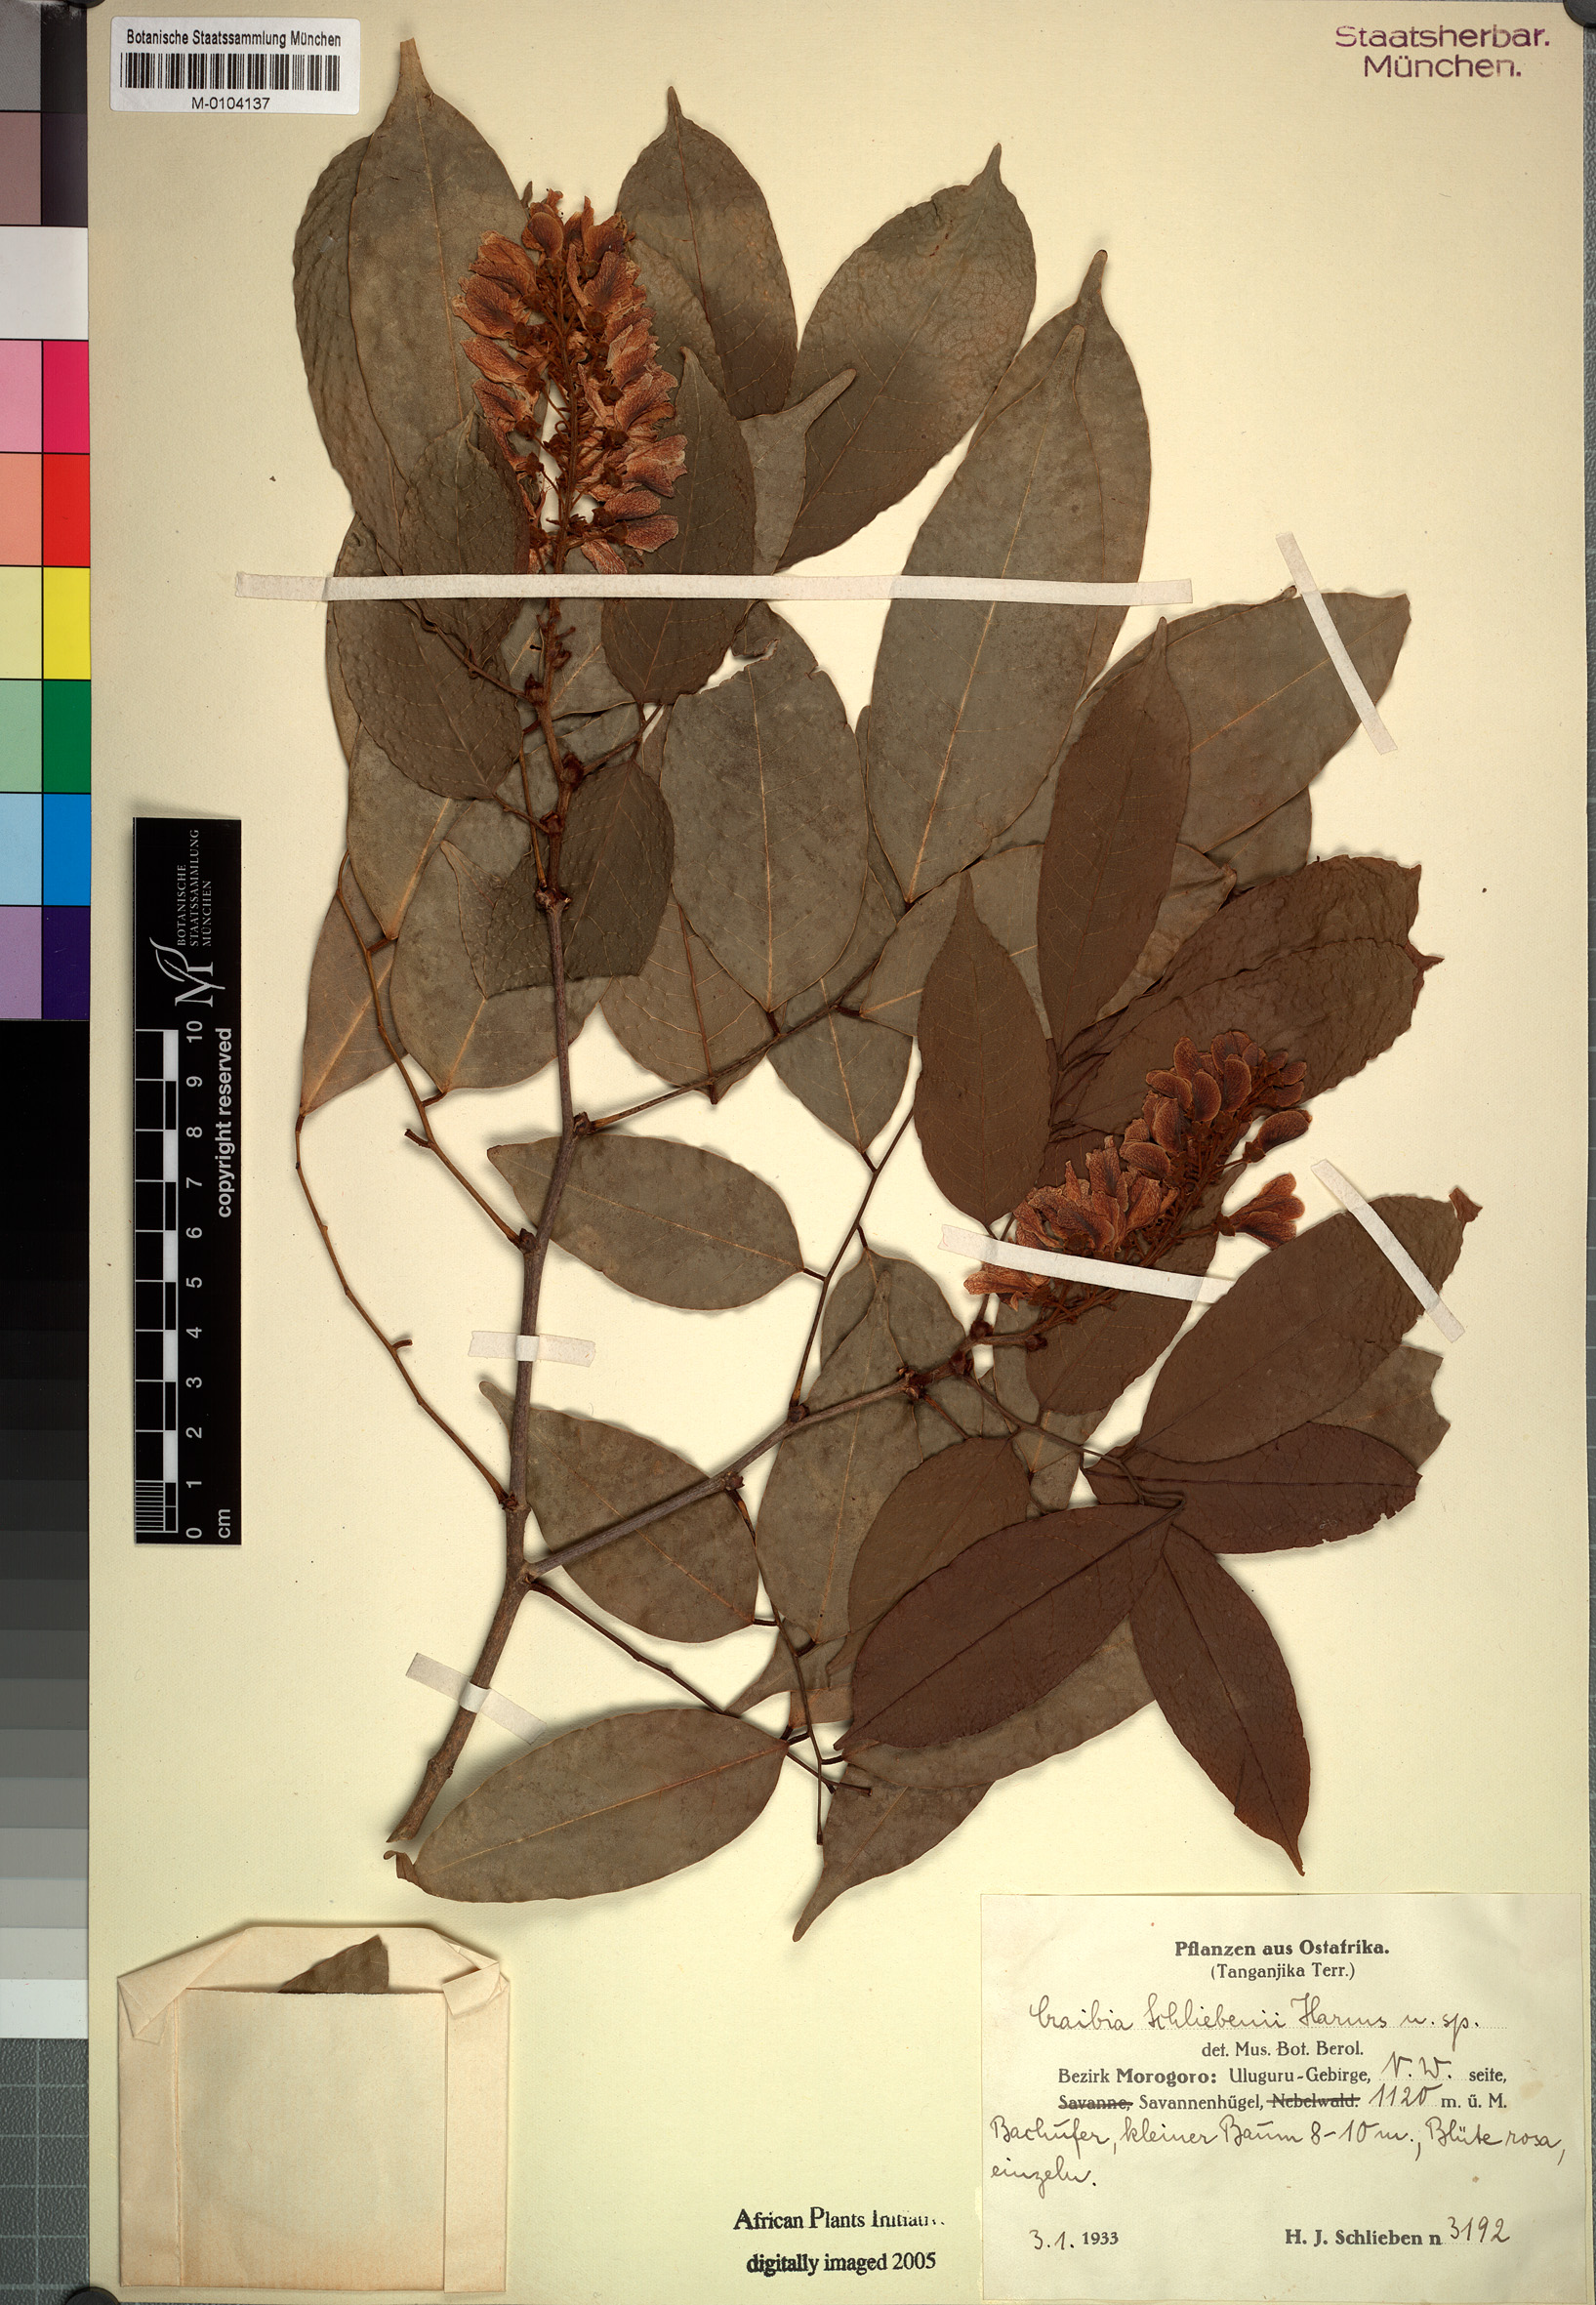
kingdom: Plantae
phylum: Tracheophyta
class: Magnoliopsida
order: Fabales
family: Fabaceae
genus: Craibia
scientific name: Craibia brevicaudata
